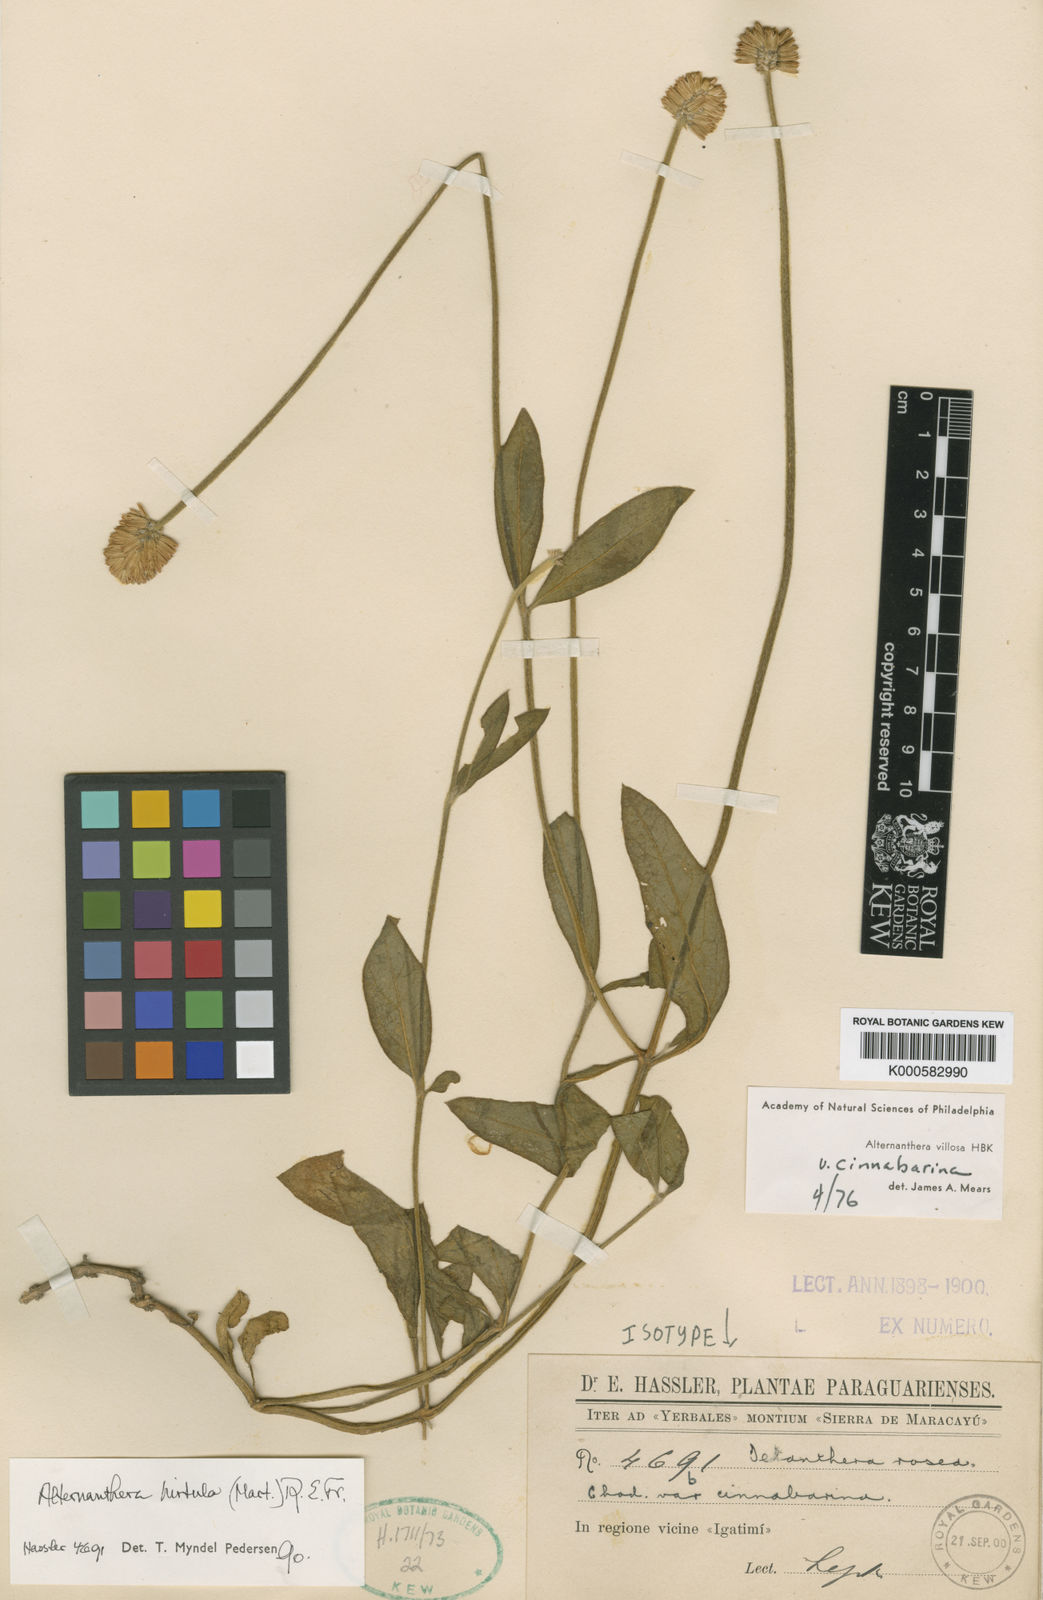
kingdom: Plantae
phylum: Tracheophyta
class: Magnoliopsida
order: Caryophyllales
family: Amaranthaceae
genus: Alternanthera
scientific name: Alternanthera hirtula
